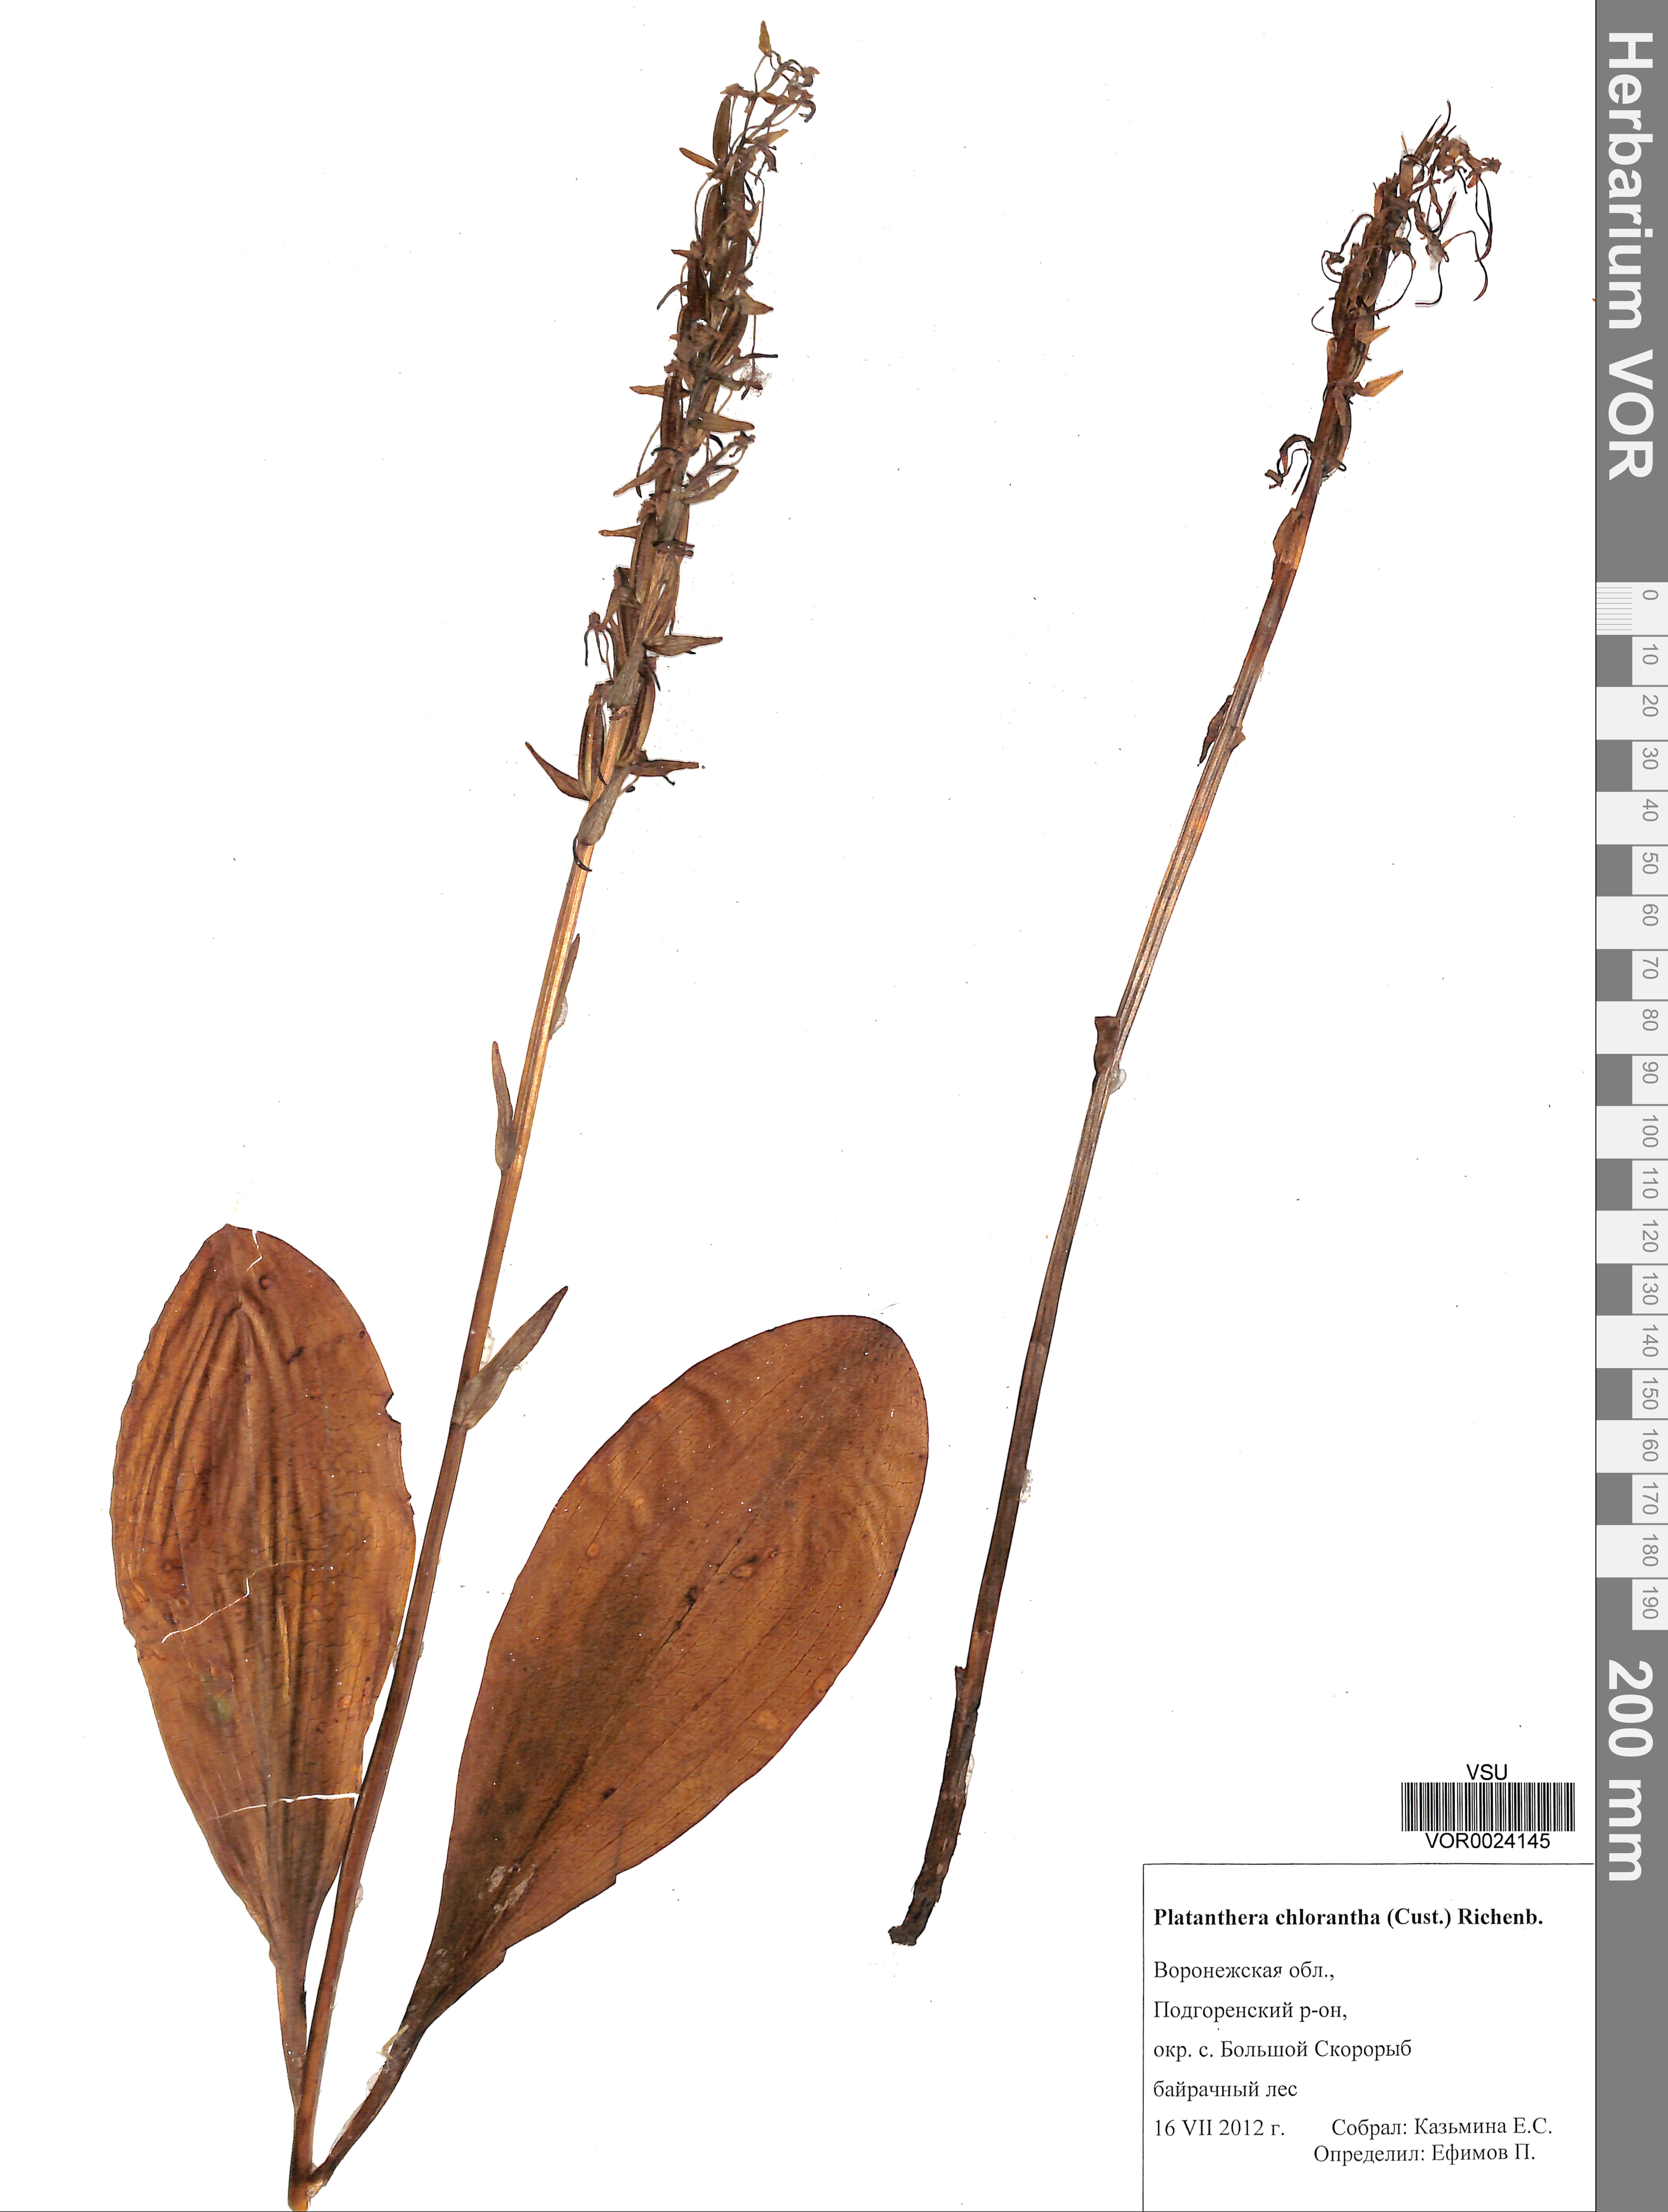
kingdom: Plantae
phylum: Tracheophyta
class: Liliopsida
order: Asparagales
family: Orchidaceae
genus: Platanthera
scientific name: Platanthera chlorantha
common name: Greater butterfly-orchid
